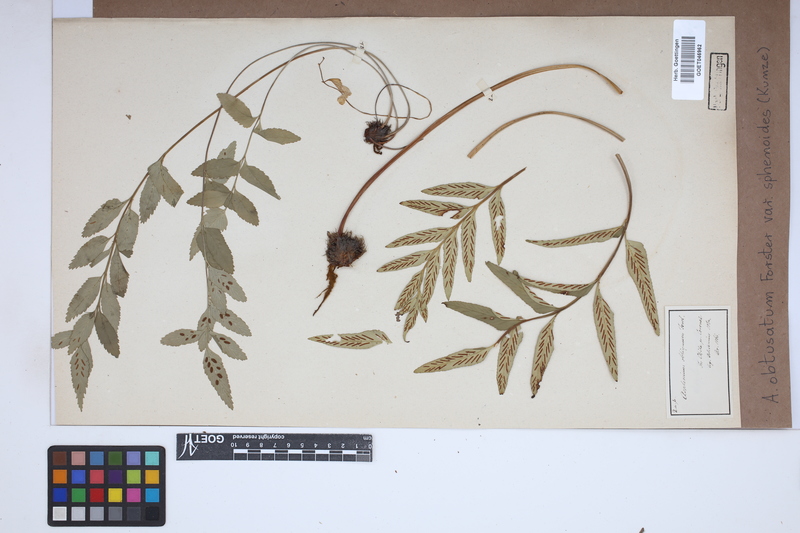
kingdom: Plantae
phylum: Tracheophyta
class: Polypodiopsida
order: Polypodiales
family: Aspleniaceae
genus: Asplenium
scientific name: Asplenium sphenoides
